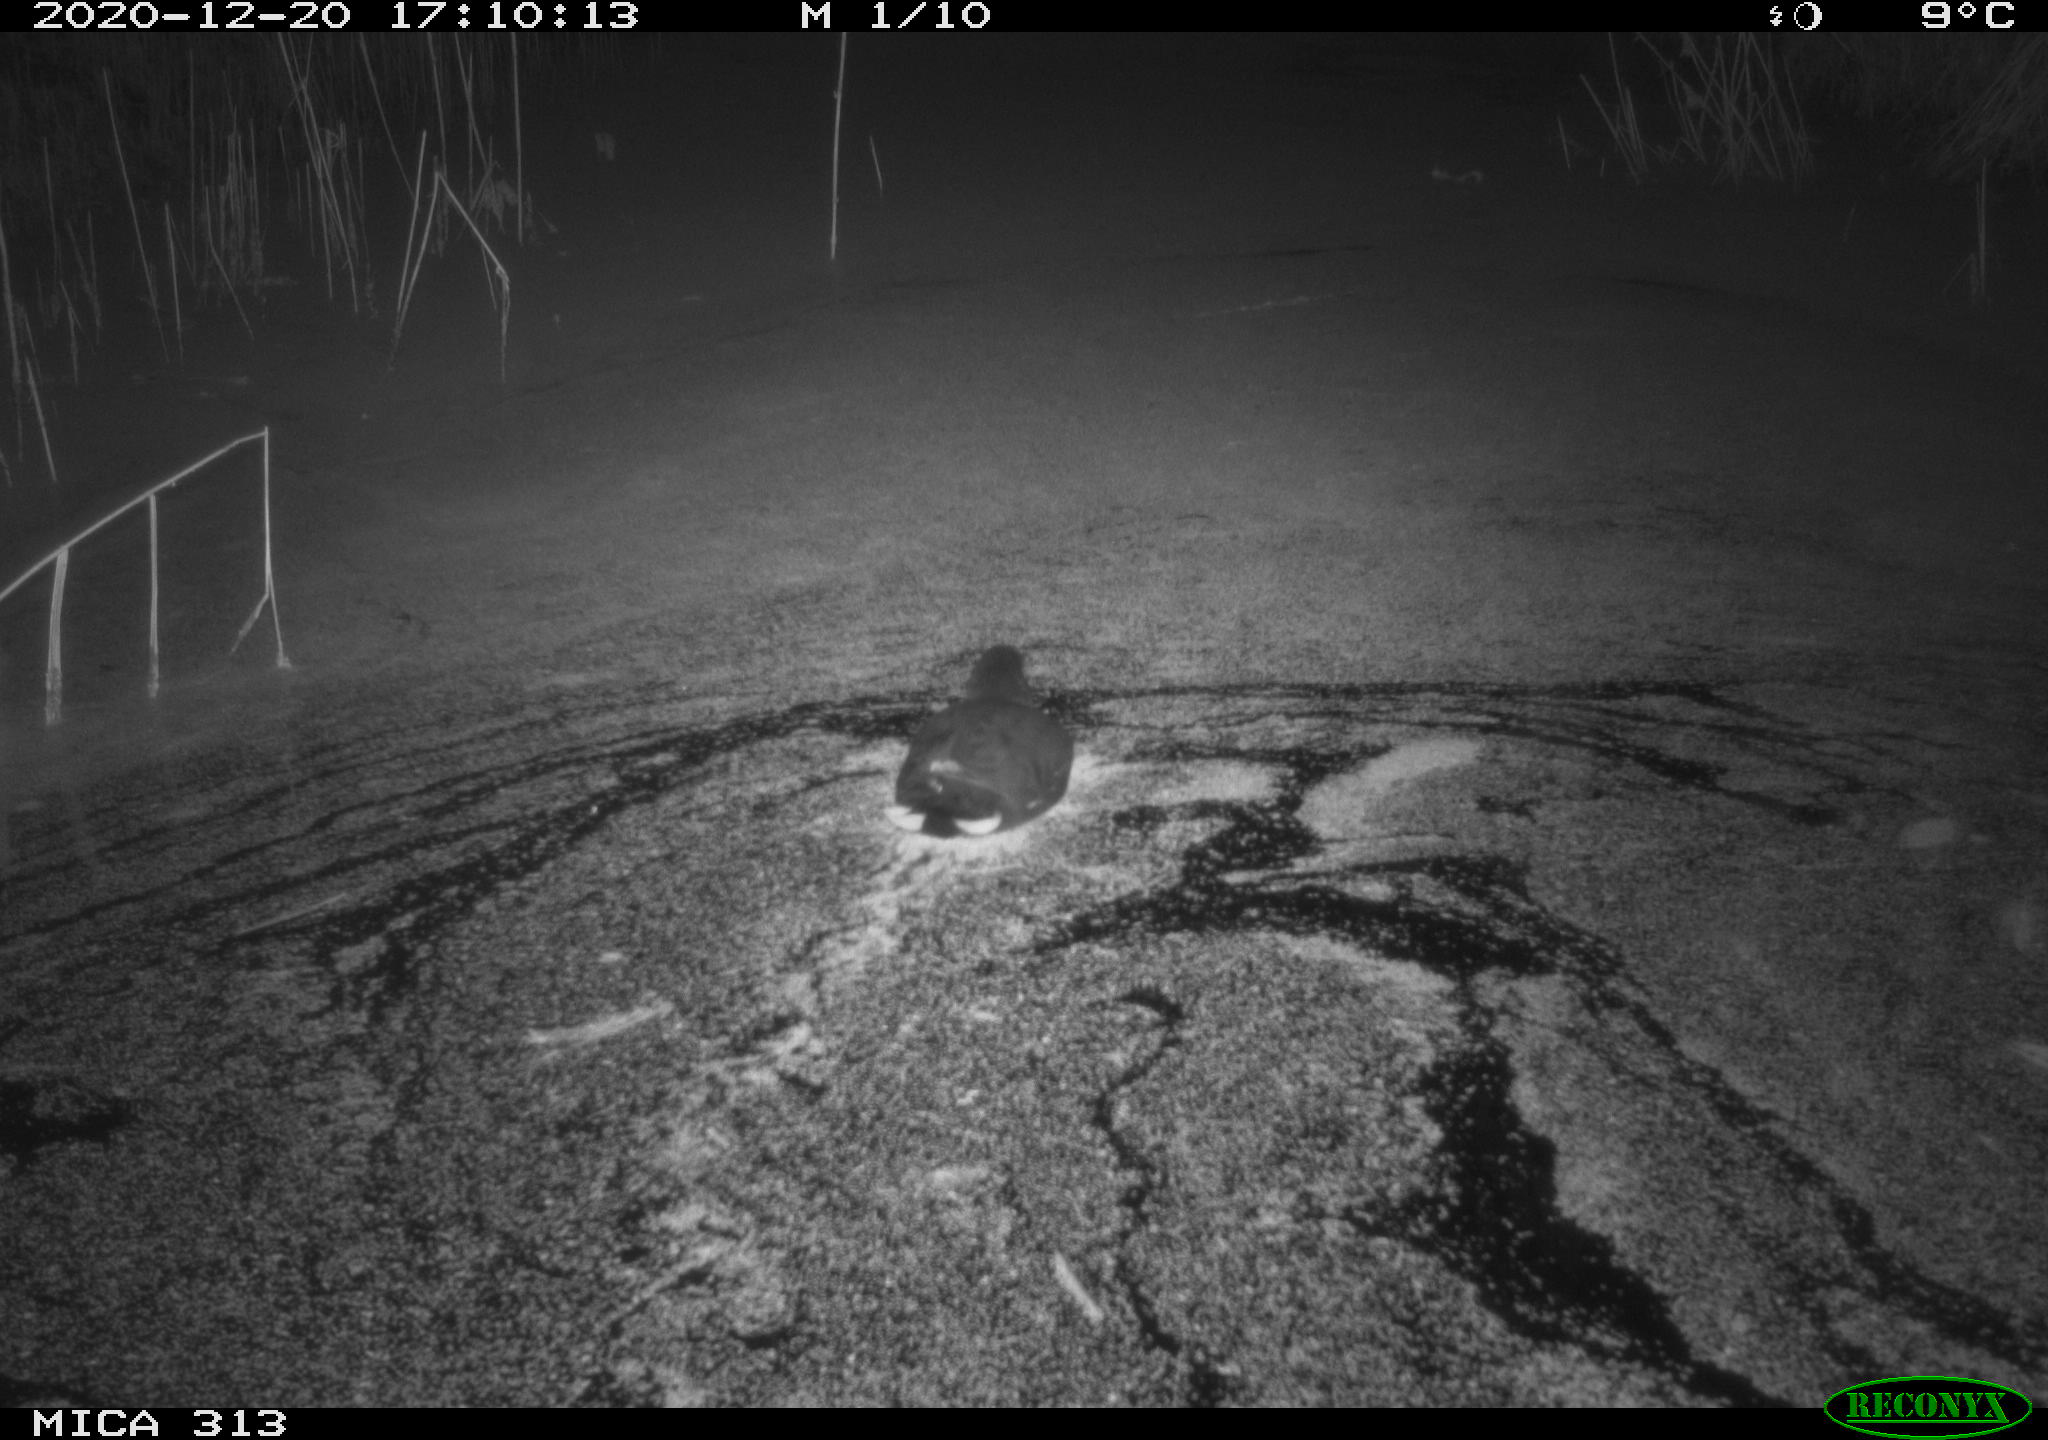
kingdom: Animalia
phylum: Chordata
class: Aves
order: Gruiformes
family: Rallidae
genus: Gallinula
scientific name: Gallinula chloropus
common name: Common moorhen
